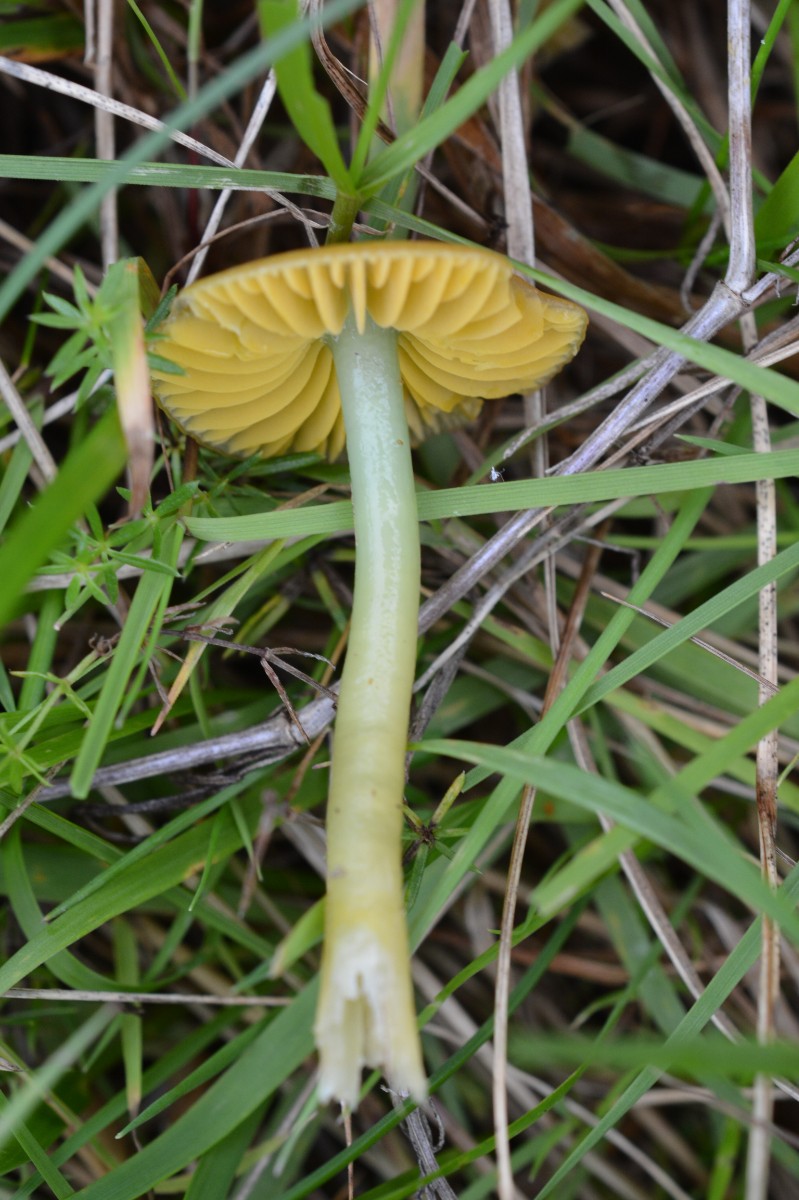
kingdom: Fungi
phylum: Basidiomycota
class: Agaricomycetes
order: Agaricales
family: Hygrophoraceae
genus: Gliophorus
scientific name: Gliophorus psittacinus
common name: papegøje-vokshat
